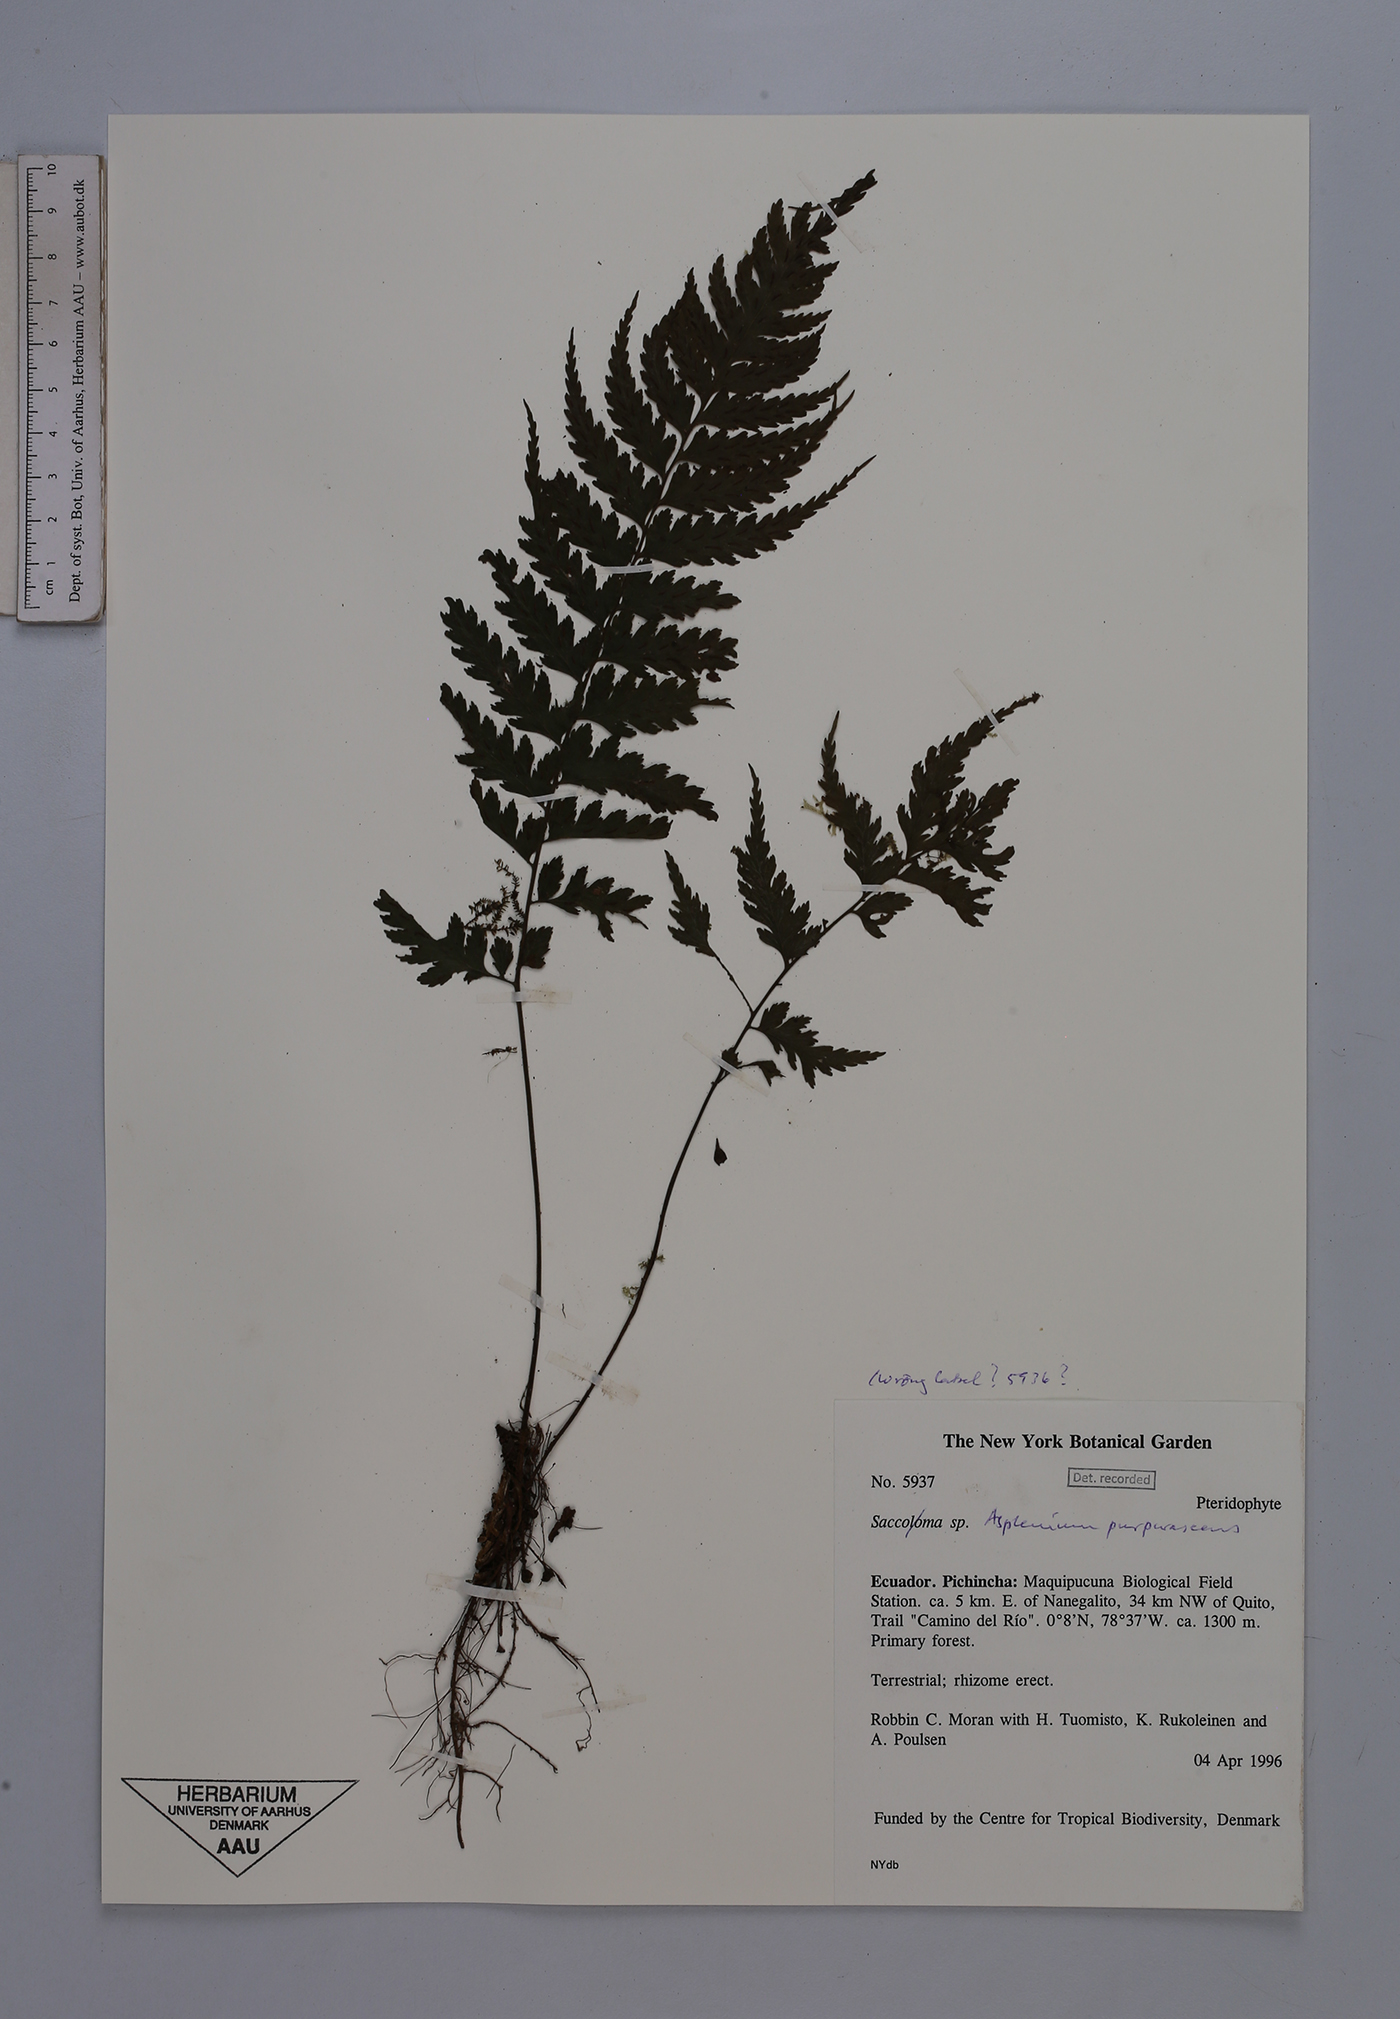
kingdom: Plantae
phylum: Tracheophyta
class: Polypodiopsida
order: Polypodiales
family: Aspleniaceae
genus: Hymenasplenium
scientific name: Hymenasplenium purpurascens
